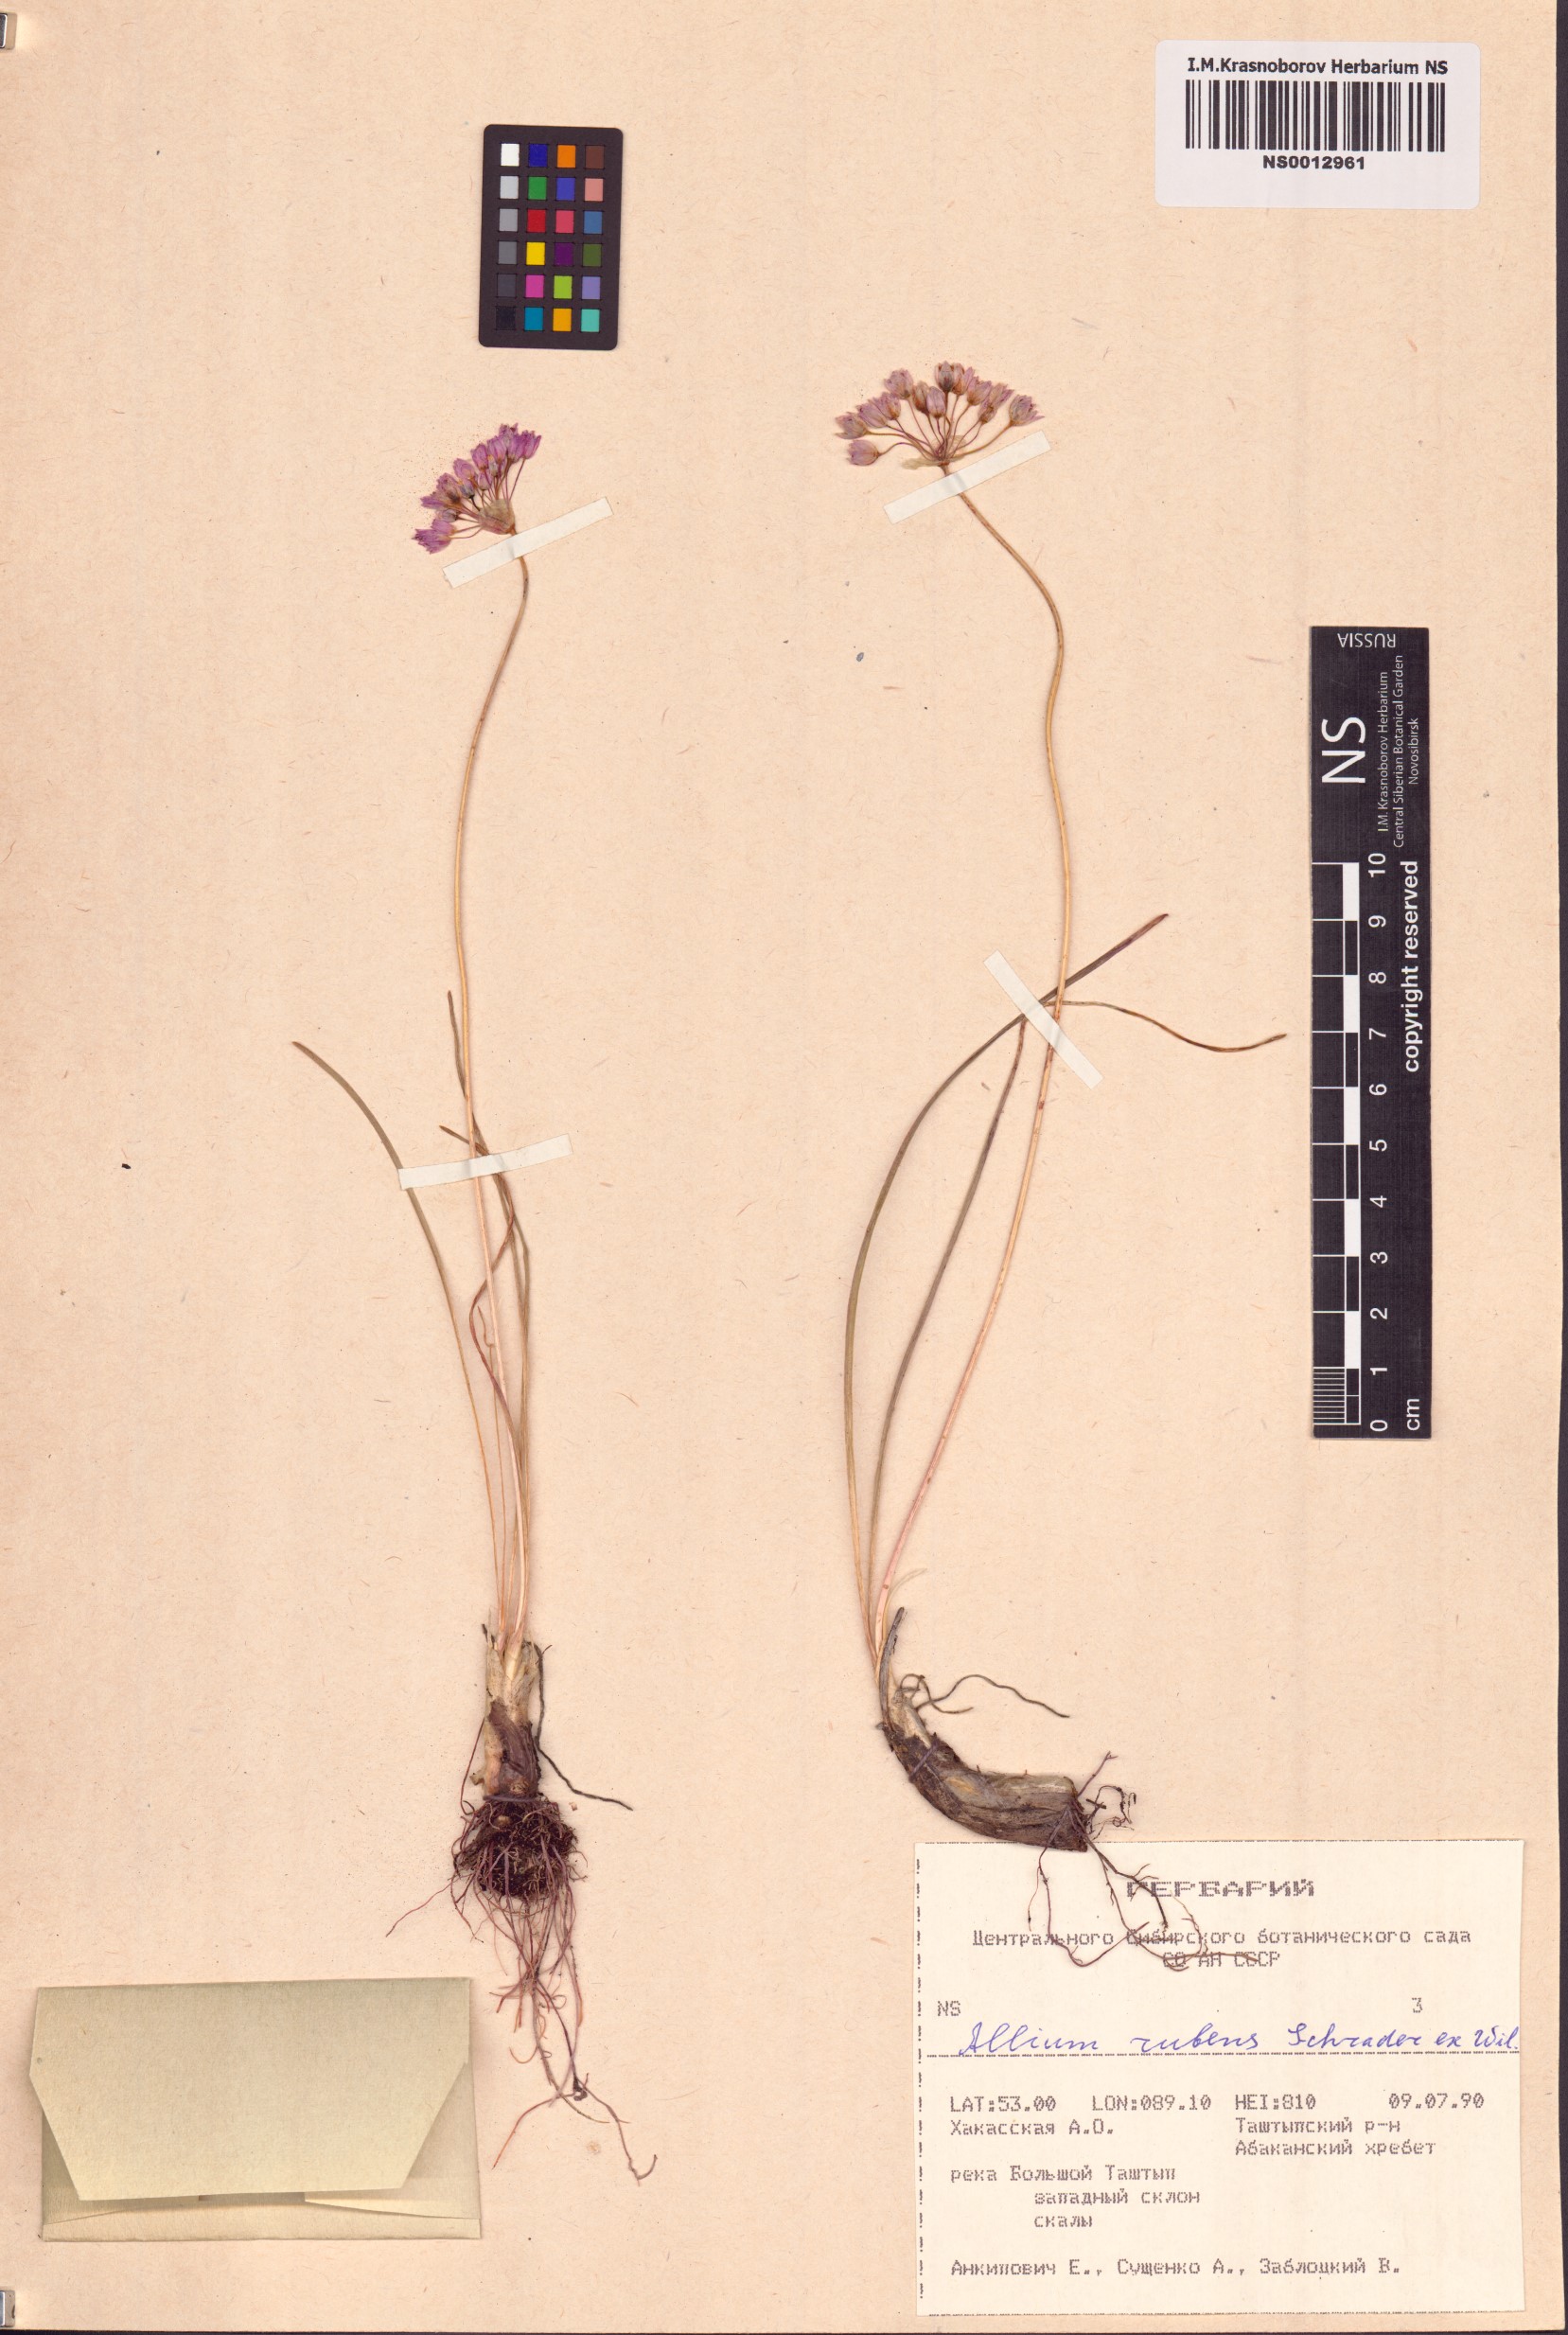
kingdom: Plantae
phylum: Tracheophyta
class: Liliopsida
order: Asparagales
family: Amaryllidaceae
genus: Allium
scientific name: Allium rubens
